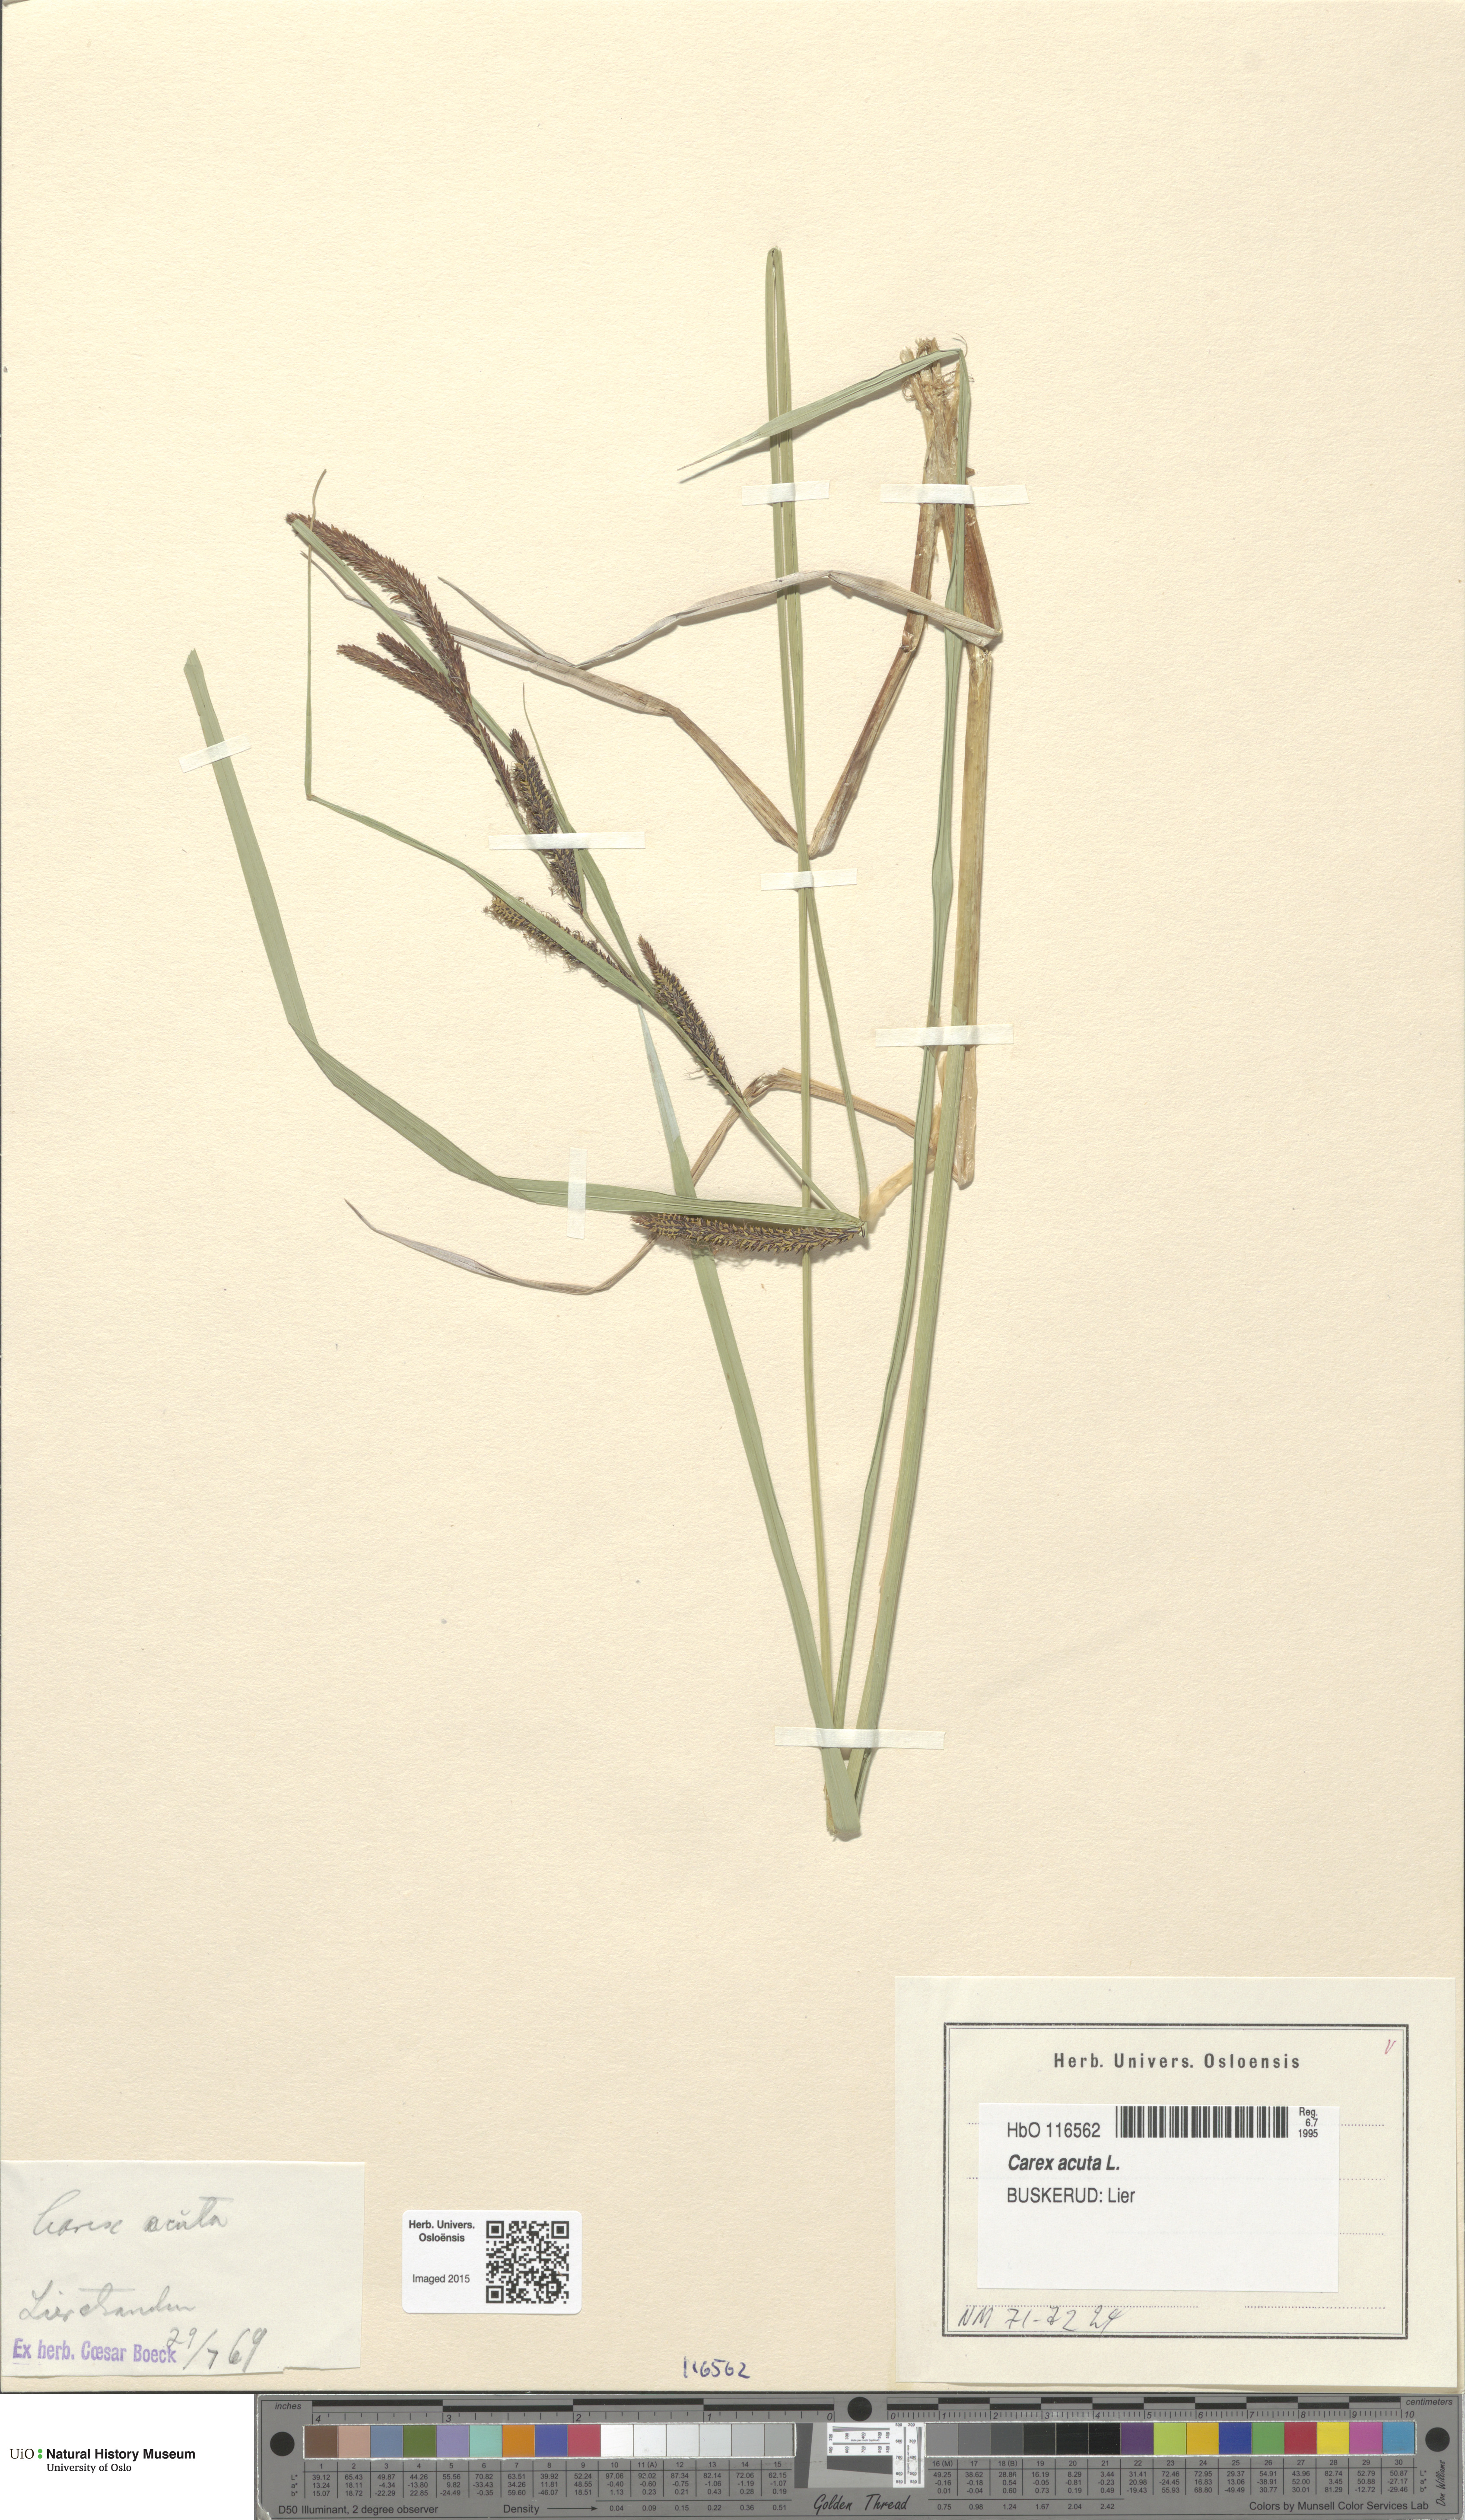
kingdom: Plantae
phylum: Tracheophyta
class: Liliopsida
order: Poales
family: Cyperaceae
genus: Carex
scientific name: Carex acuta
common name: Slender tufted-sedge
